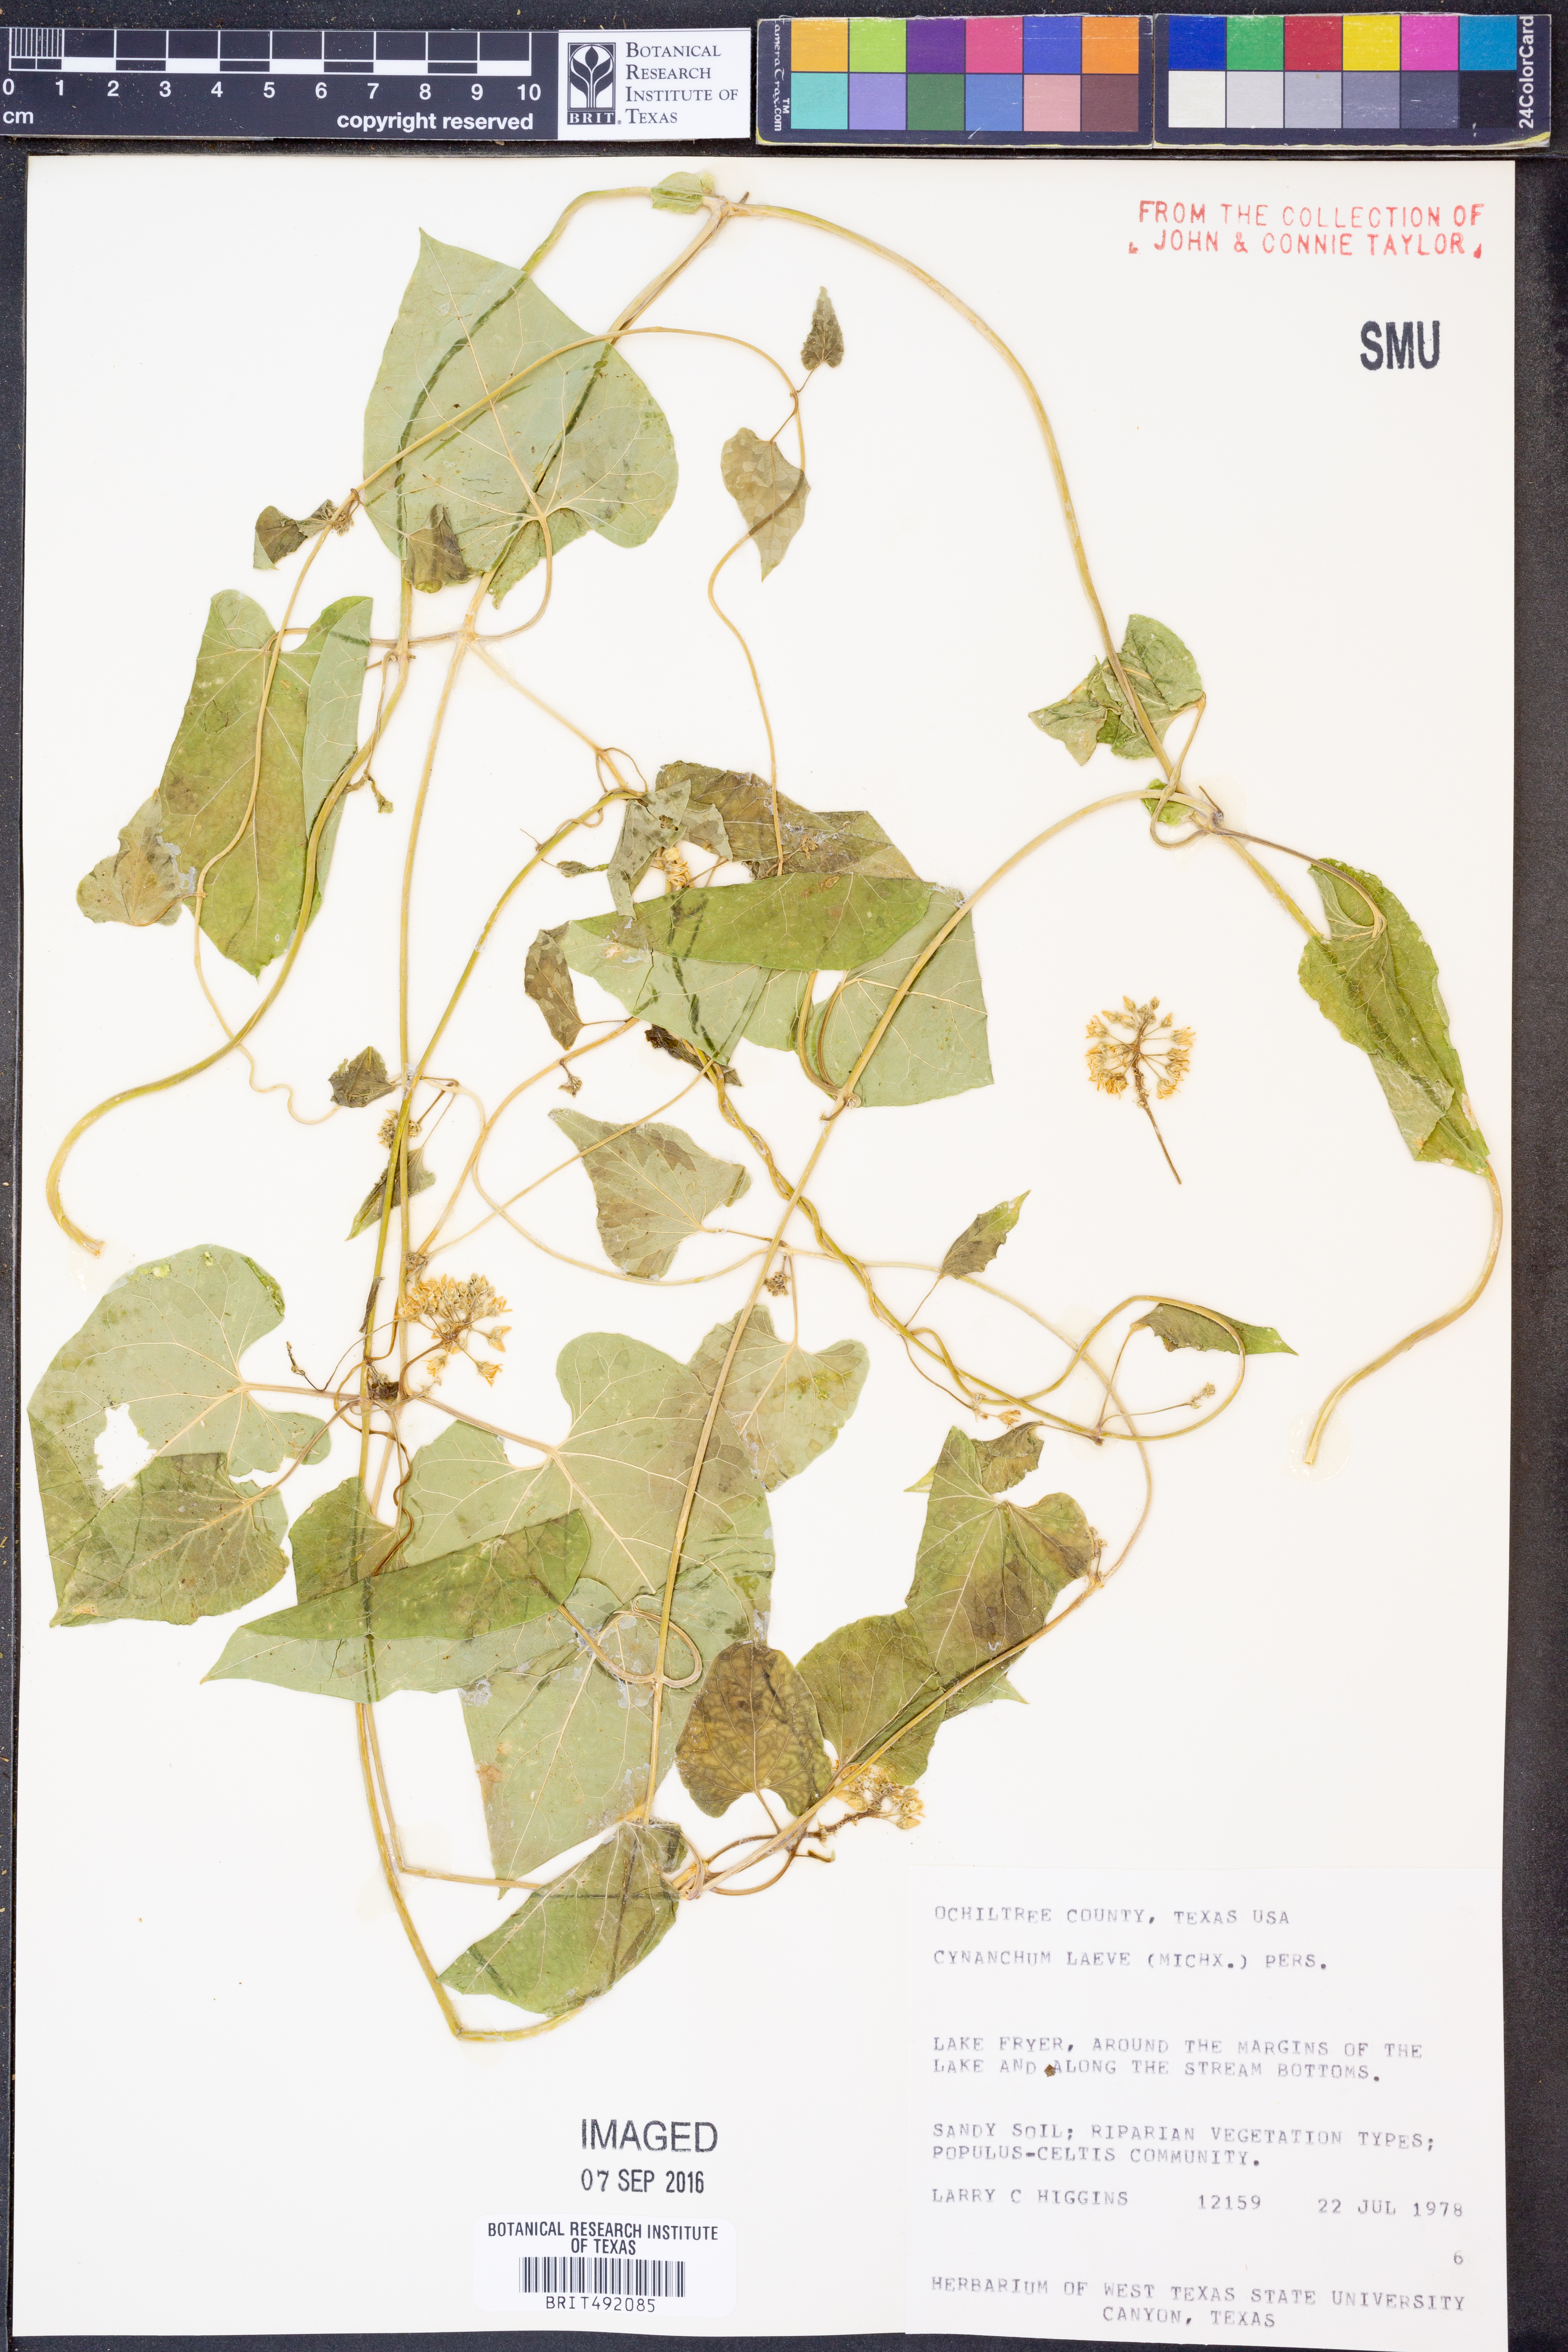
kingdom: Plantae
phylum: Tracheophyta
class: Magnoliopsida
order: Gentianales
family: Apocynaceae
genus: Cynanchum
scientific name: Cynanchum laeve
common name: Sandvine
